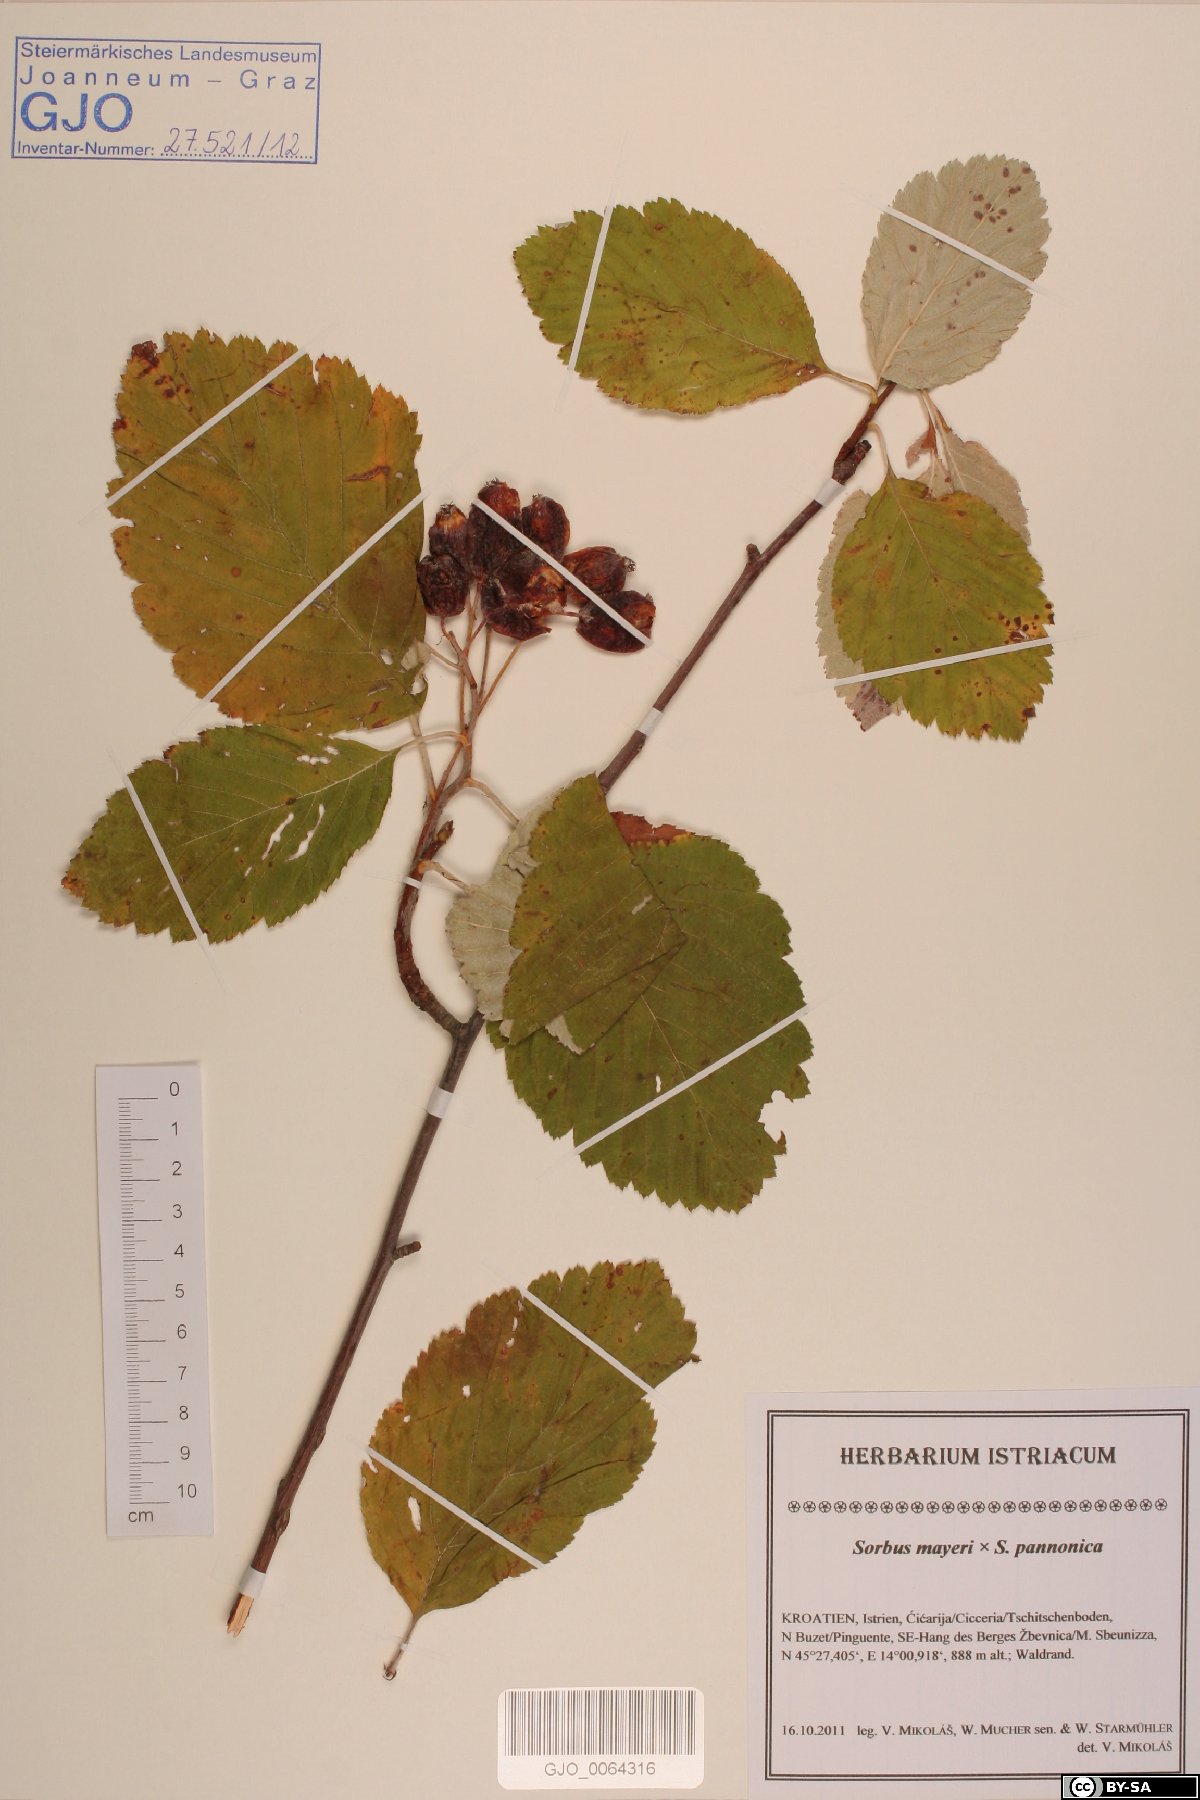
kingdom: Plantae
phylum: Tracheophyta
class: Magnoliopsida
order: Rosales
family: Rosaceae
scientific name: Rosaceae
